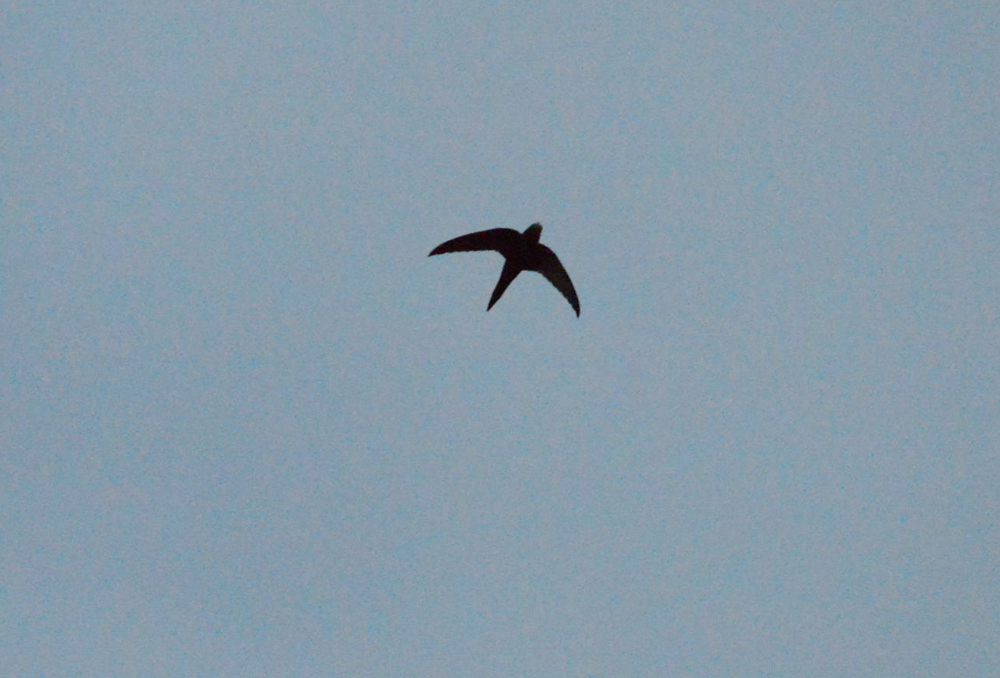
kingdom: Animalia
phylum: Chordata
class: Aves
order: Apodiformes
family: Apodidae
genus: Apus
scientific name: Apus apus
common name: Common swift
